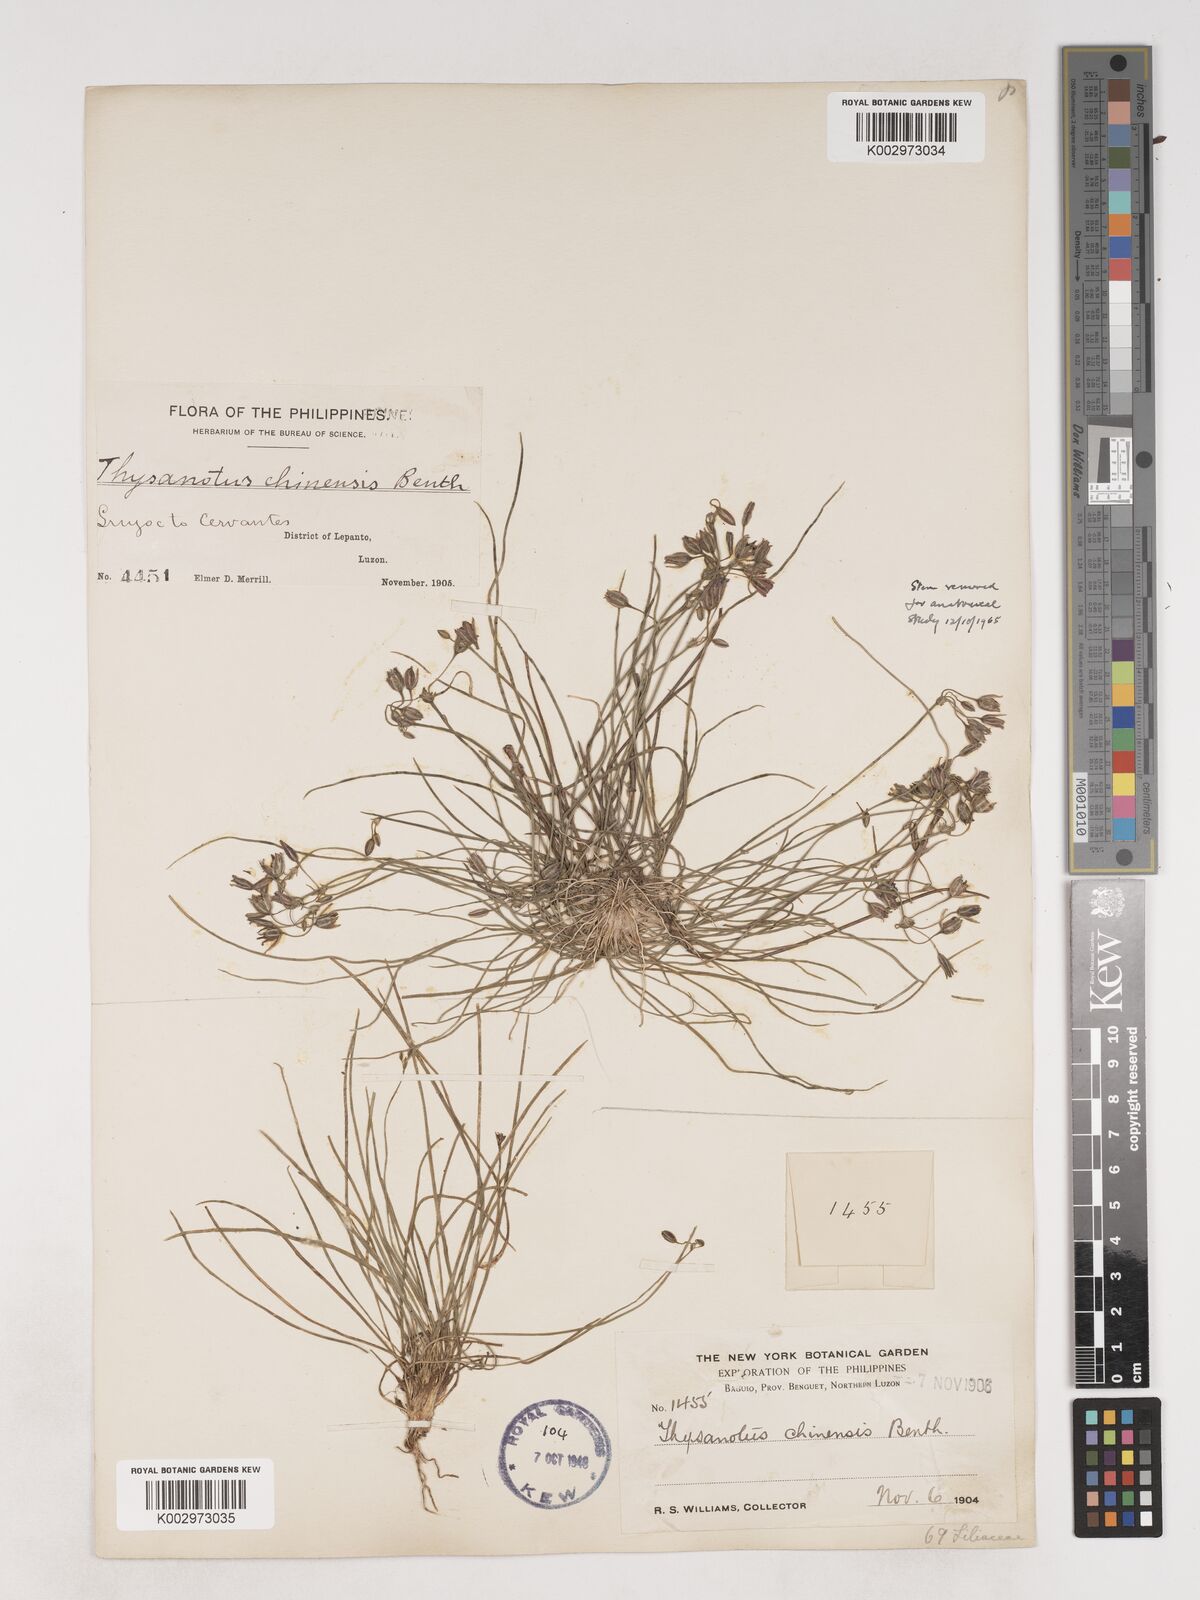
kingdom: Plantae
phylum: Tracheophyta
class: Liliopsida
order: Asparagales
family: Asparagaceae
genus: Thysanotus
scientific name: Thysanotus chinensis
